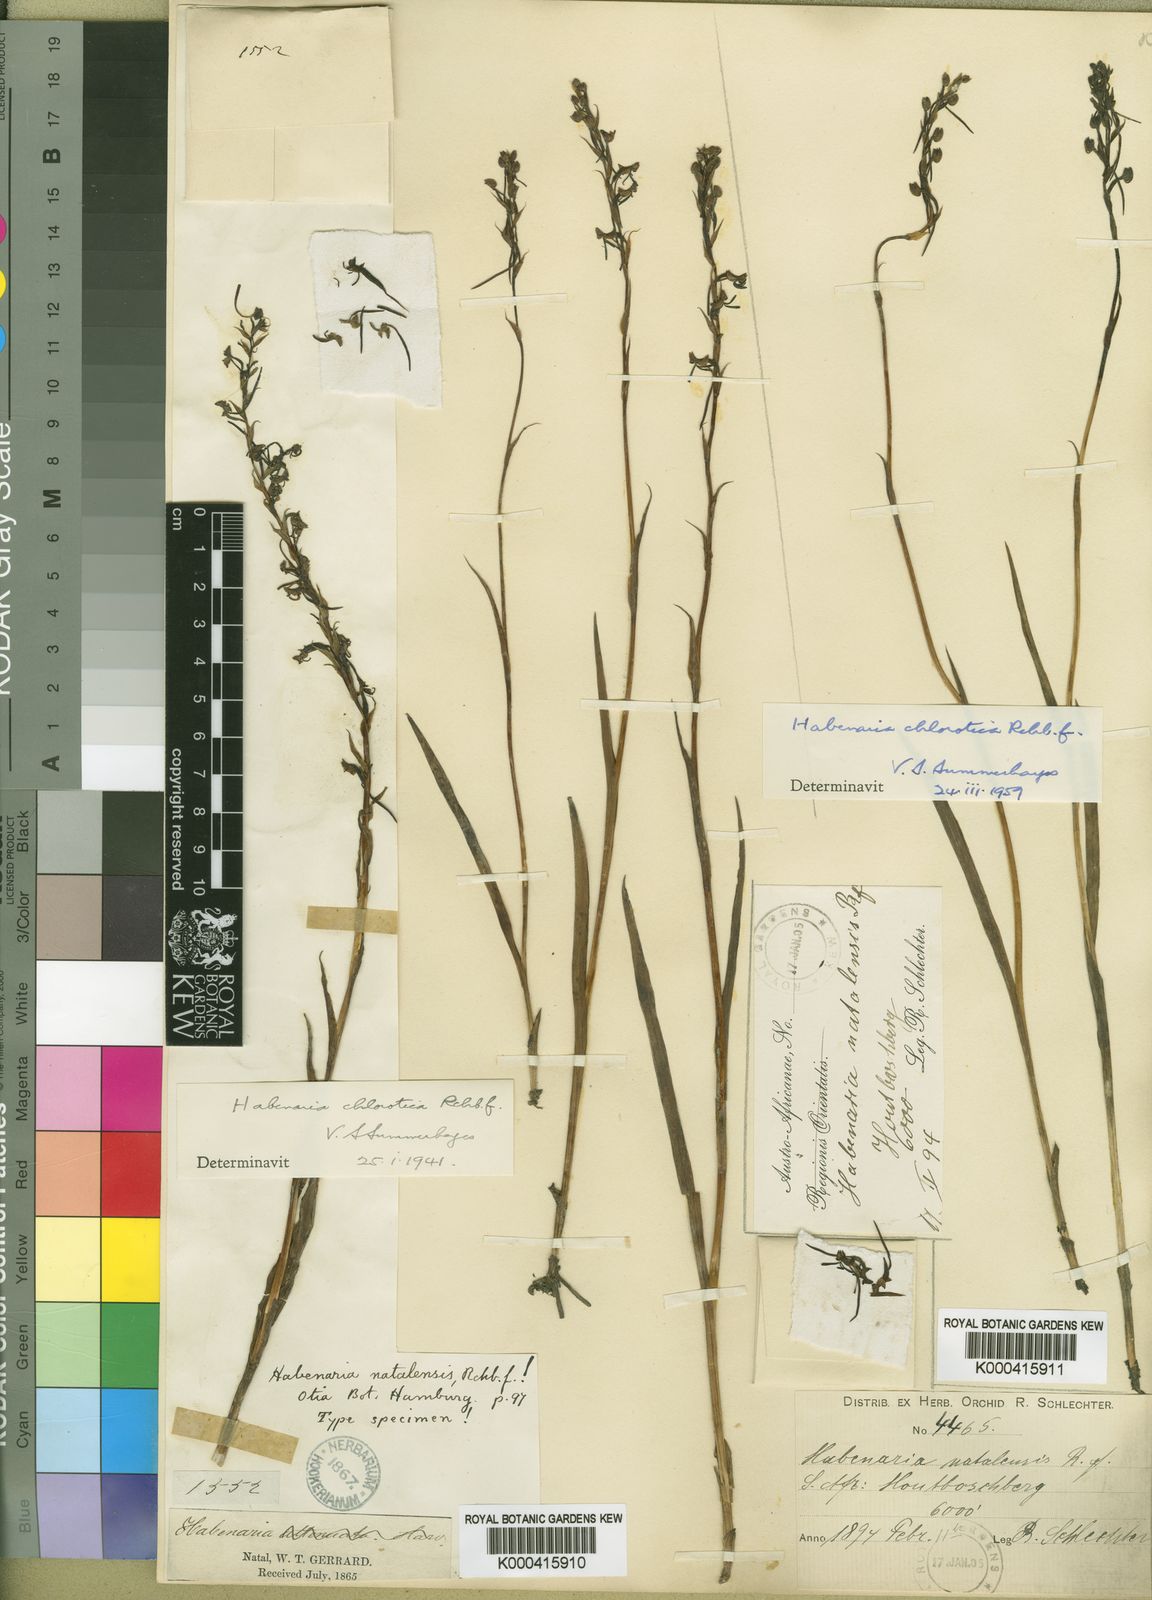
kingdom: Plantae
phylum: Tracheophyta
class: Liliopsida
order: Asparagales
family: Orchidaceae
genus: Habenaria
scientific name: Habenaria filicornis
